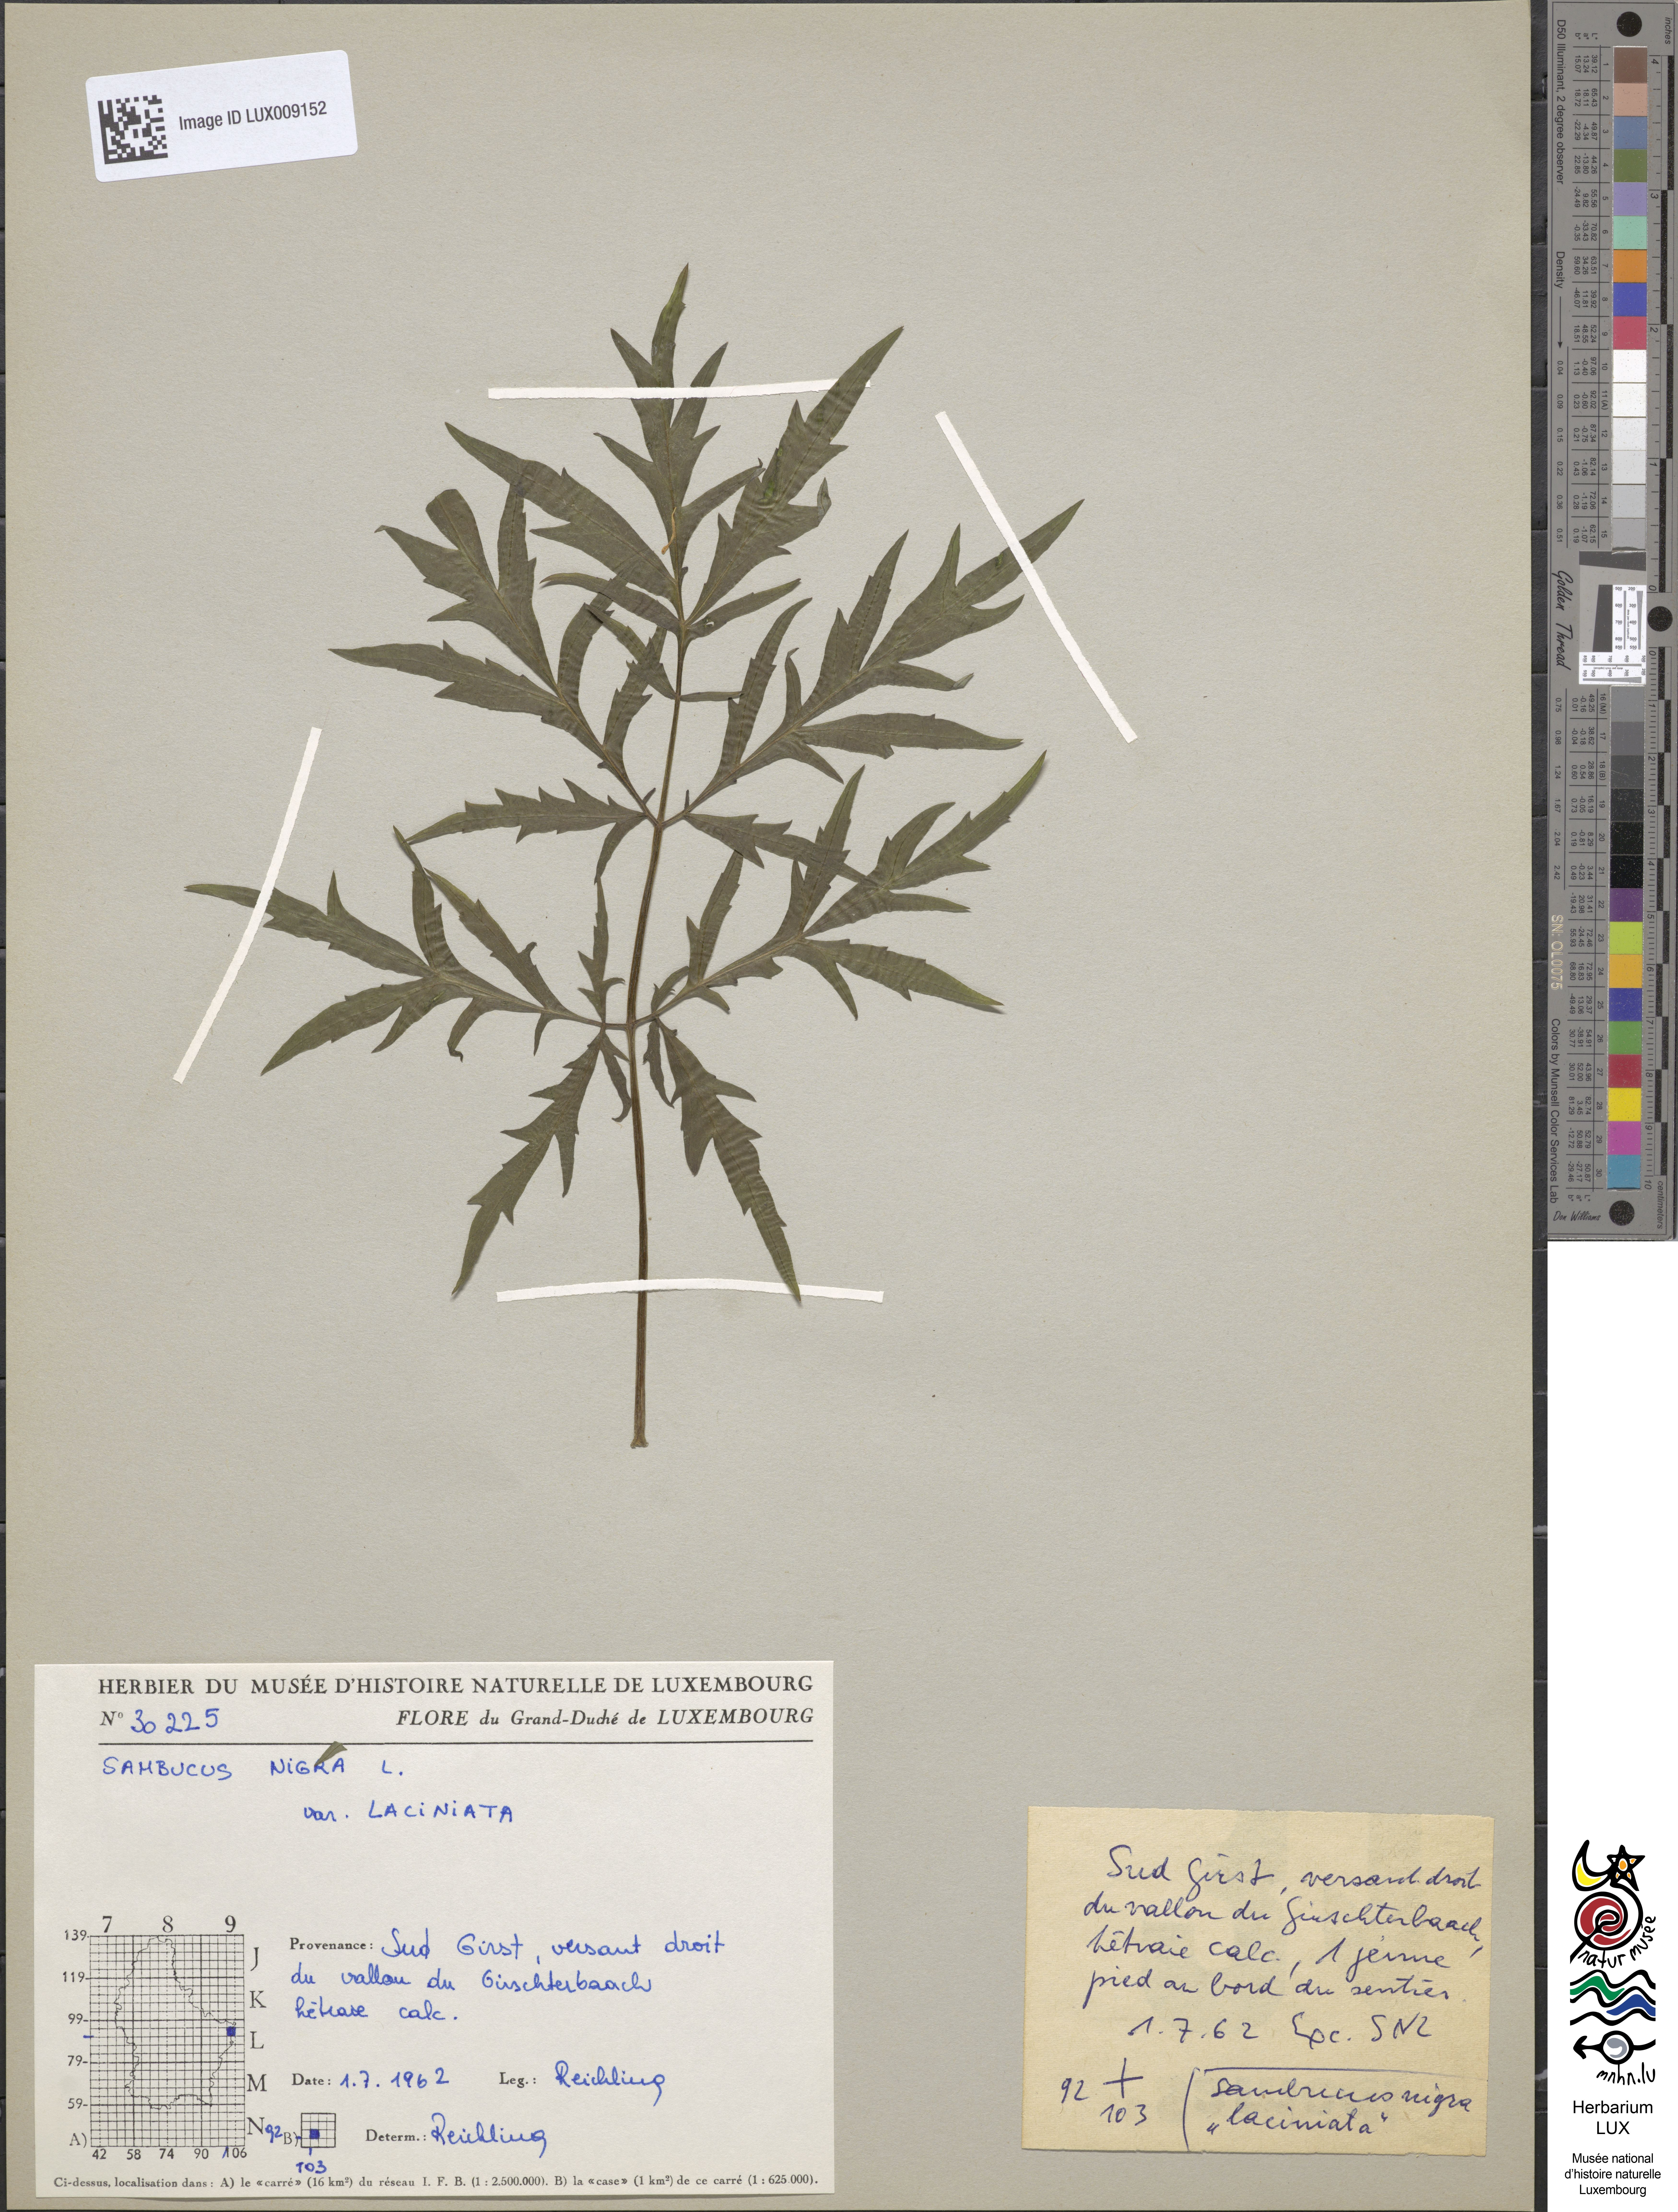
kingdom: Plantae
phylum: Tracheophyta
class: Magnoliopsida
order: Dipsacales
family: Viburnaceae
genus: Sambucus
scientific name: Sambucus nigra
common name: Elder
